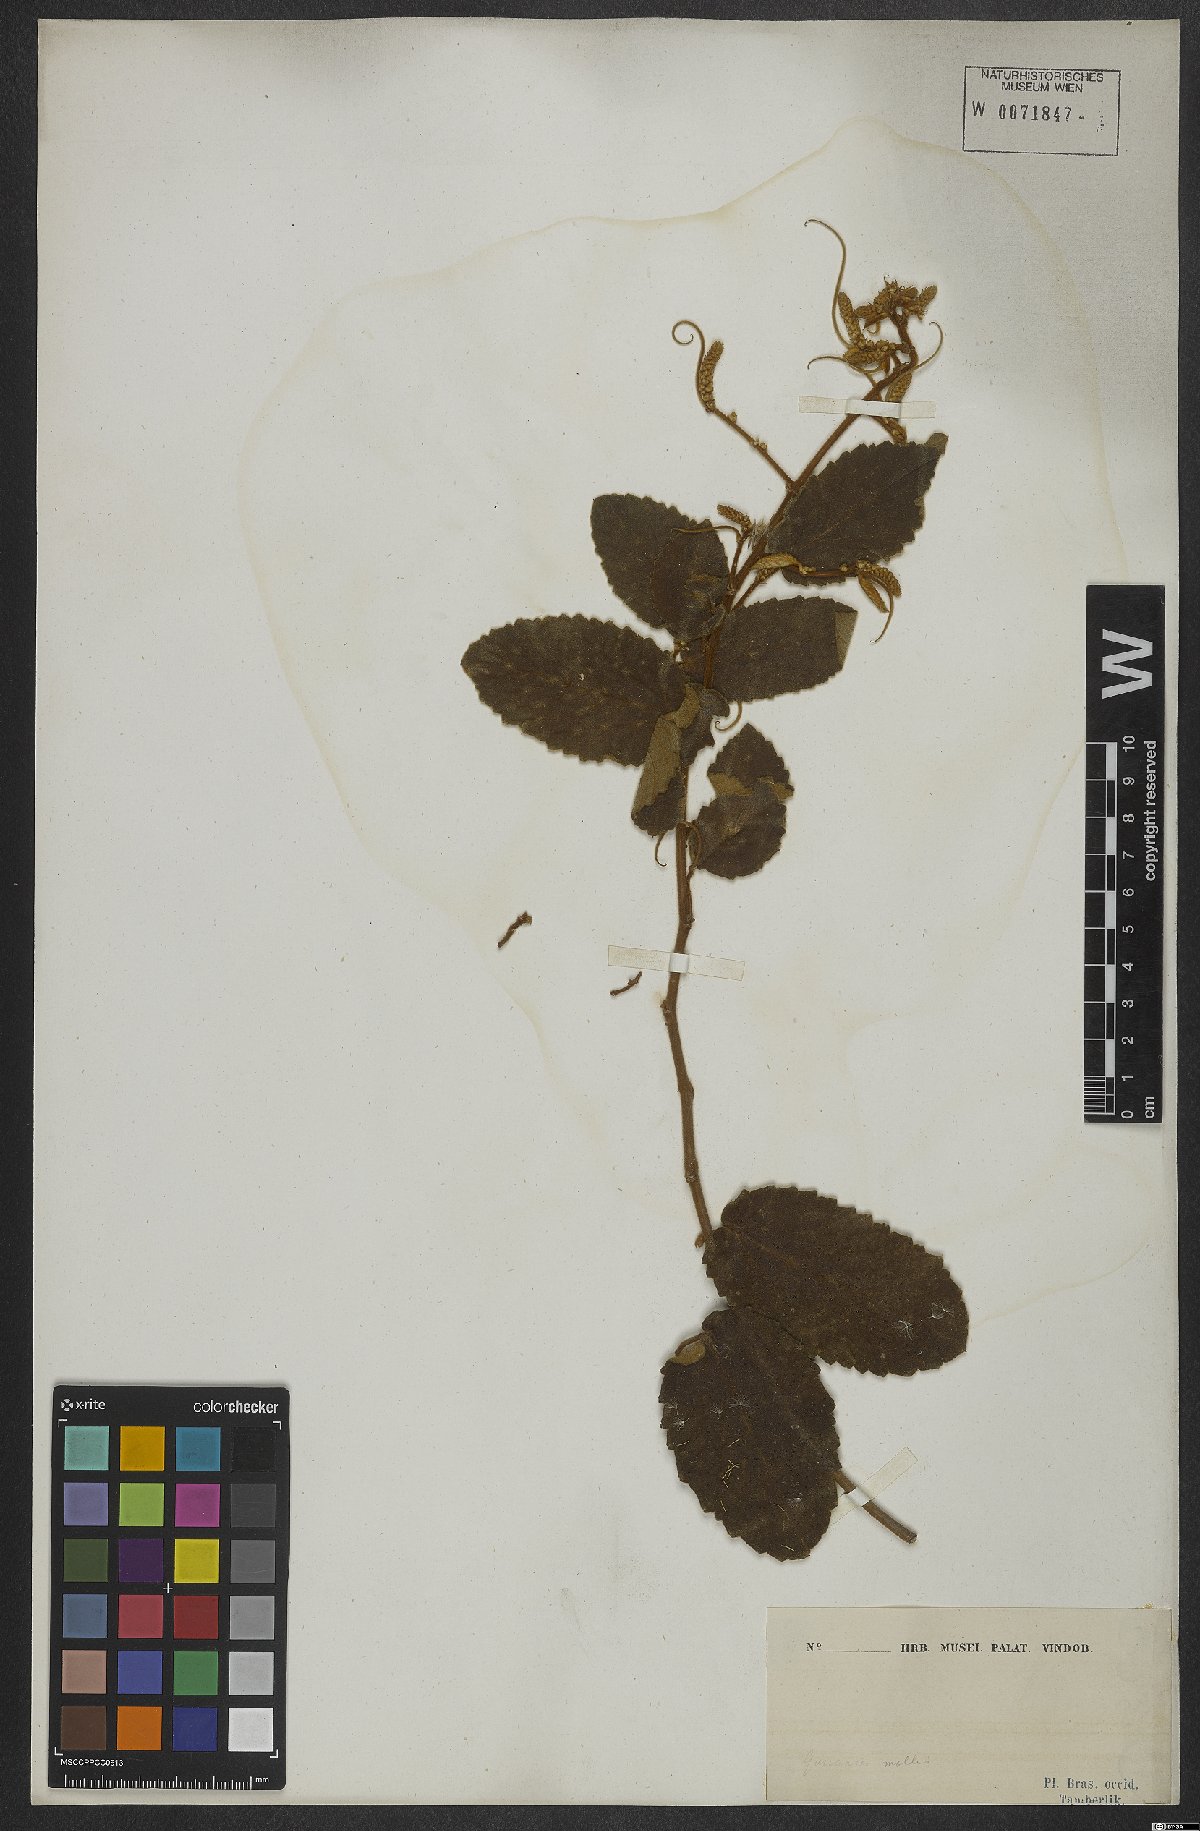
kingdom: Plantae
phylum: Tracheophyta
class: Magnoliopsida
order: Rosales
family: Rhamnaceae
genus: Gouania
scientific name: Gouania latifolia
